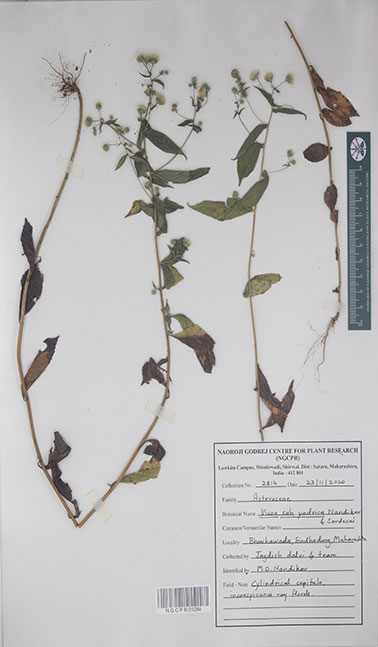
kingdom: Plantae
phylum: Tracheophyta
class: Magnoliopsida
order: Asterales
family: Asteraceae
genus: Vicoa
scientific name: Vicoa sahyadrica
